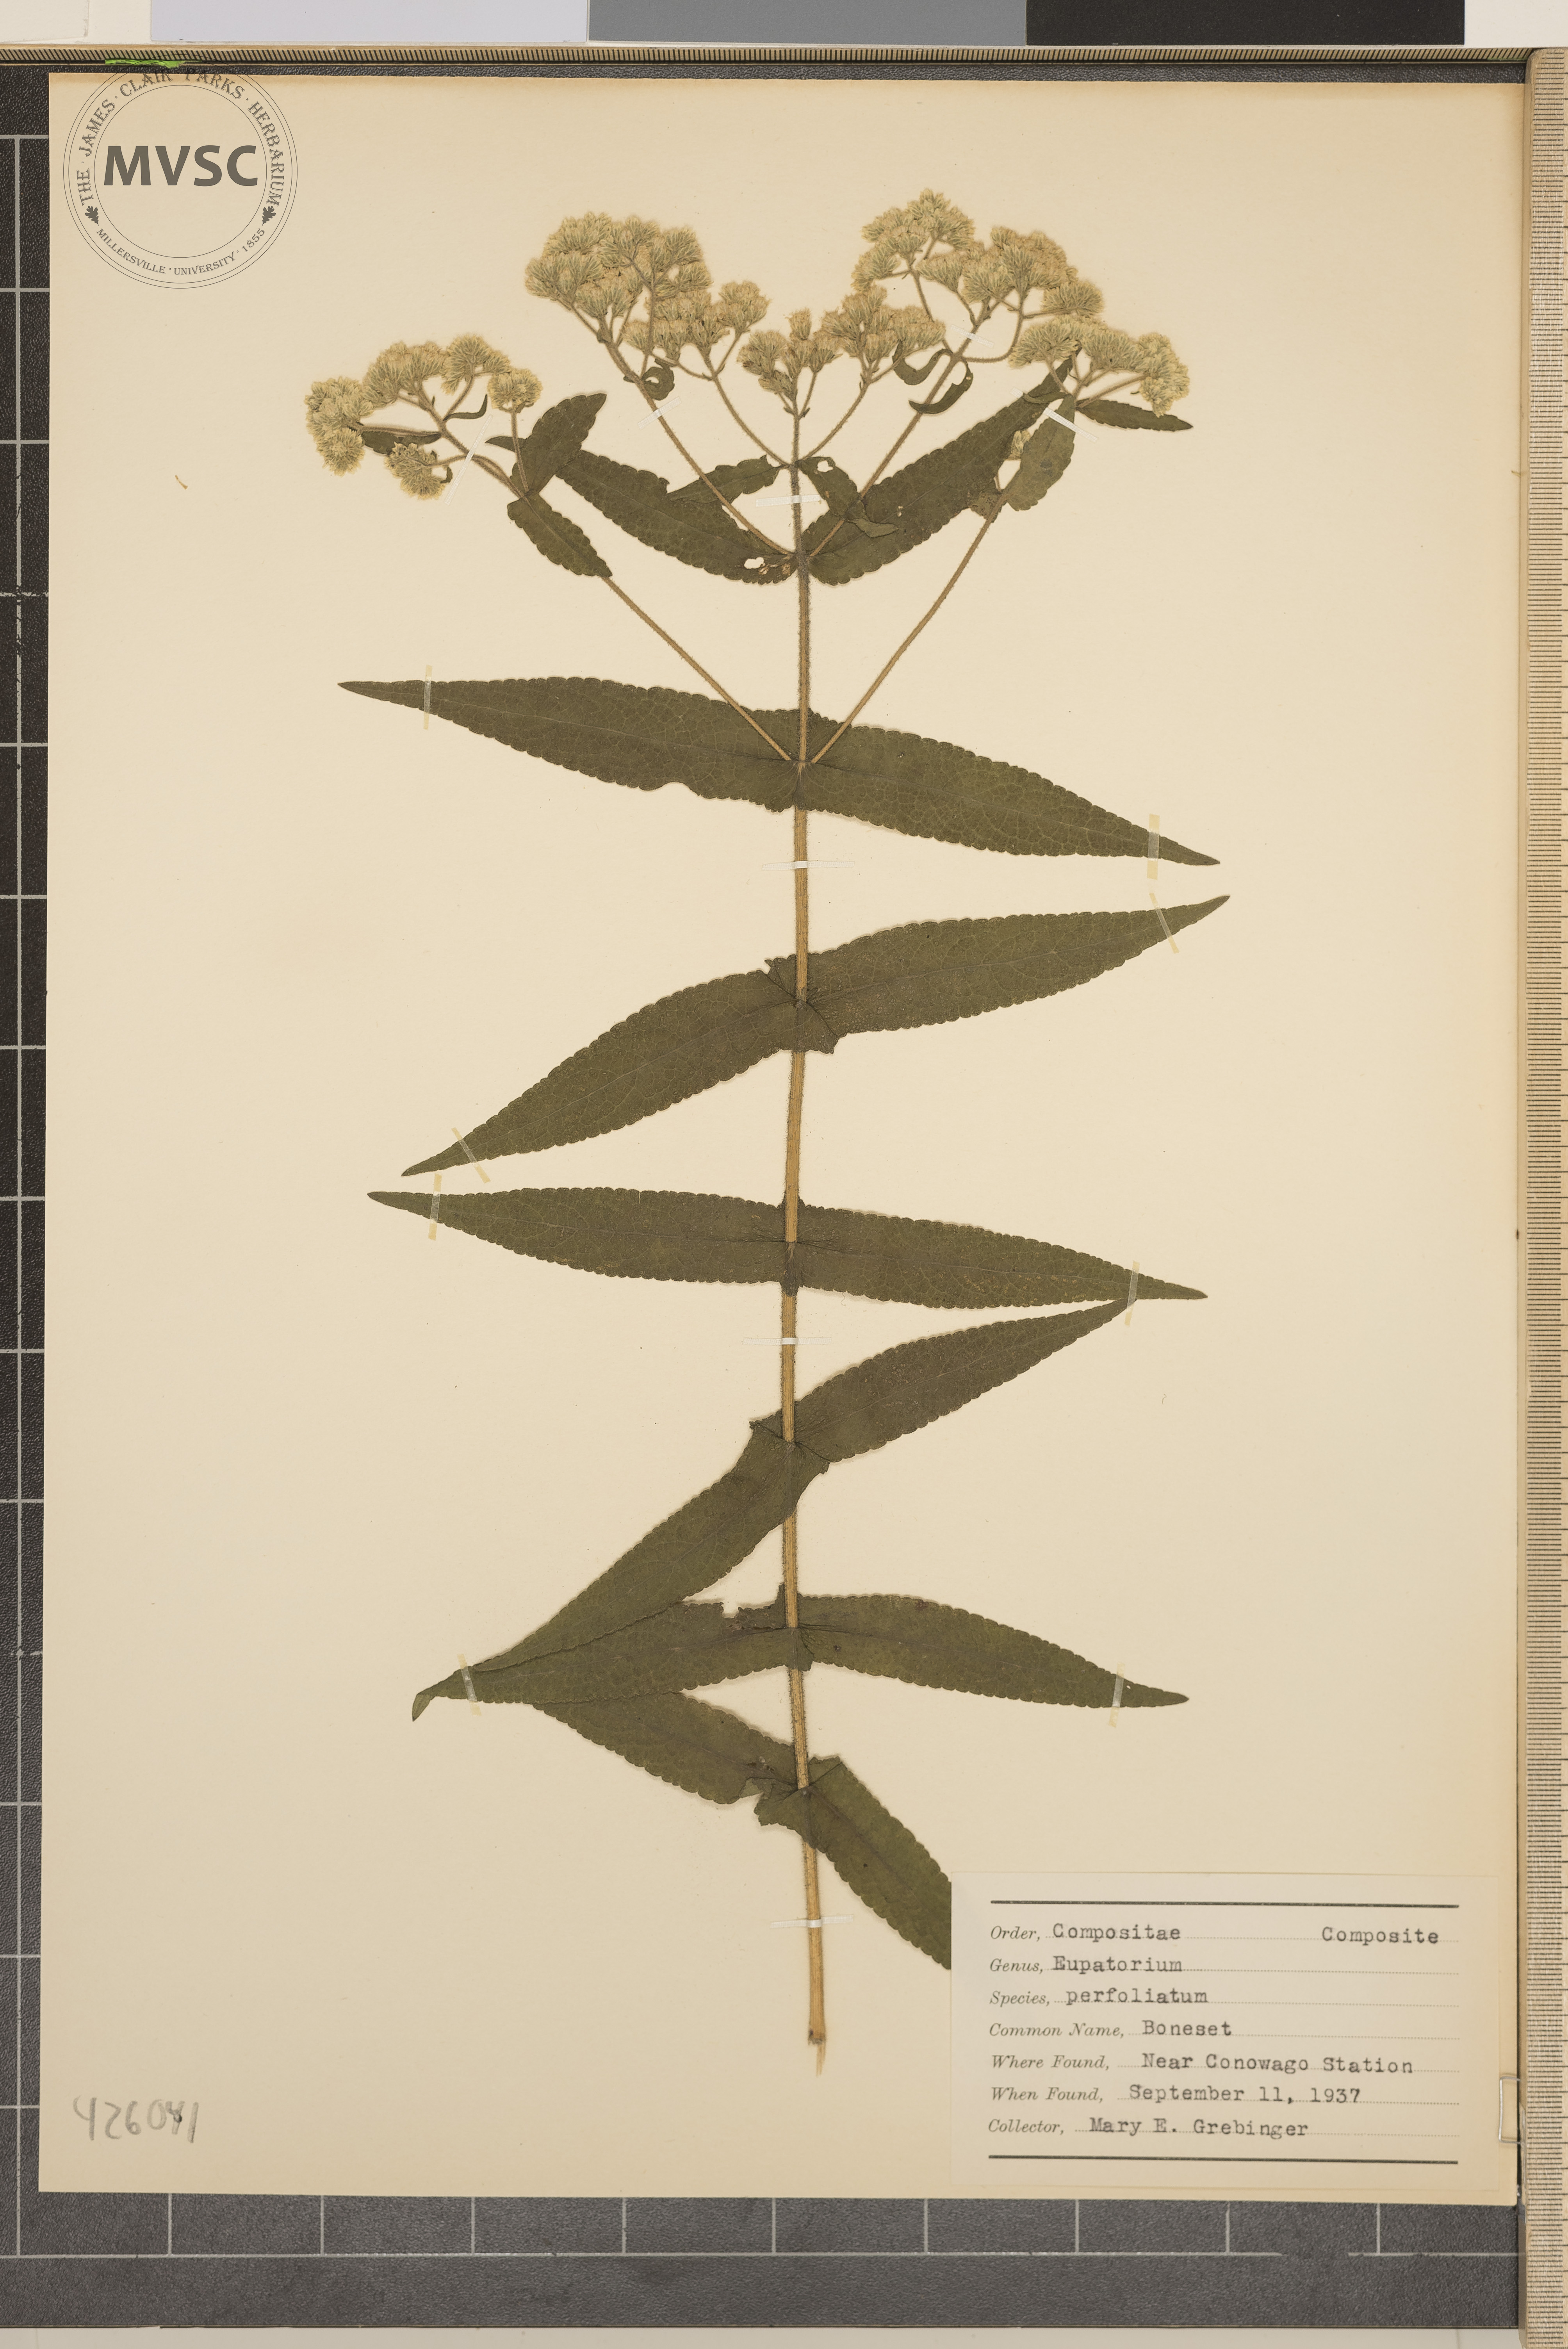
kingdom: Plantae
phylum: Tracheophyta
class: Magnoliopsida
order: Asterales
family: Asteraceae
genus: Eupatorium
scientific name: Eupatorium perfoliatum
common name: Boneset
